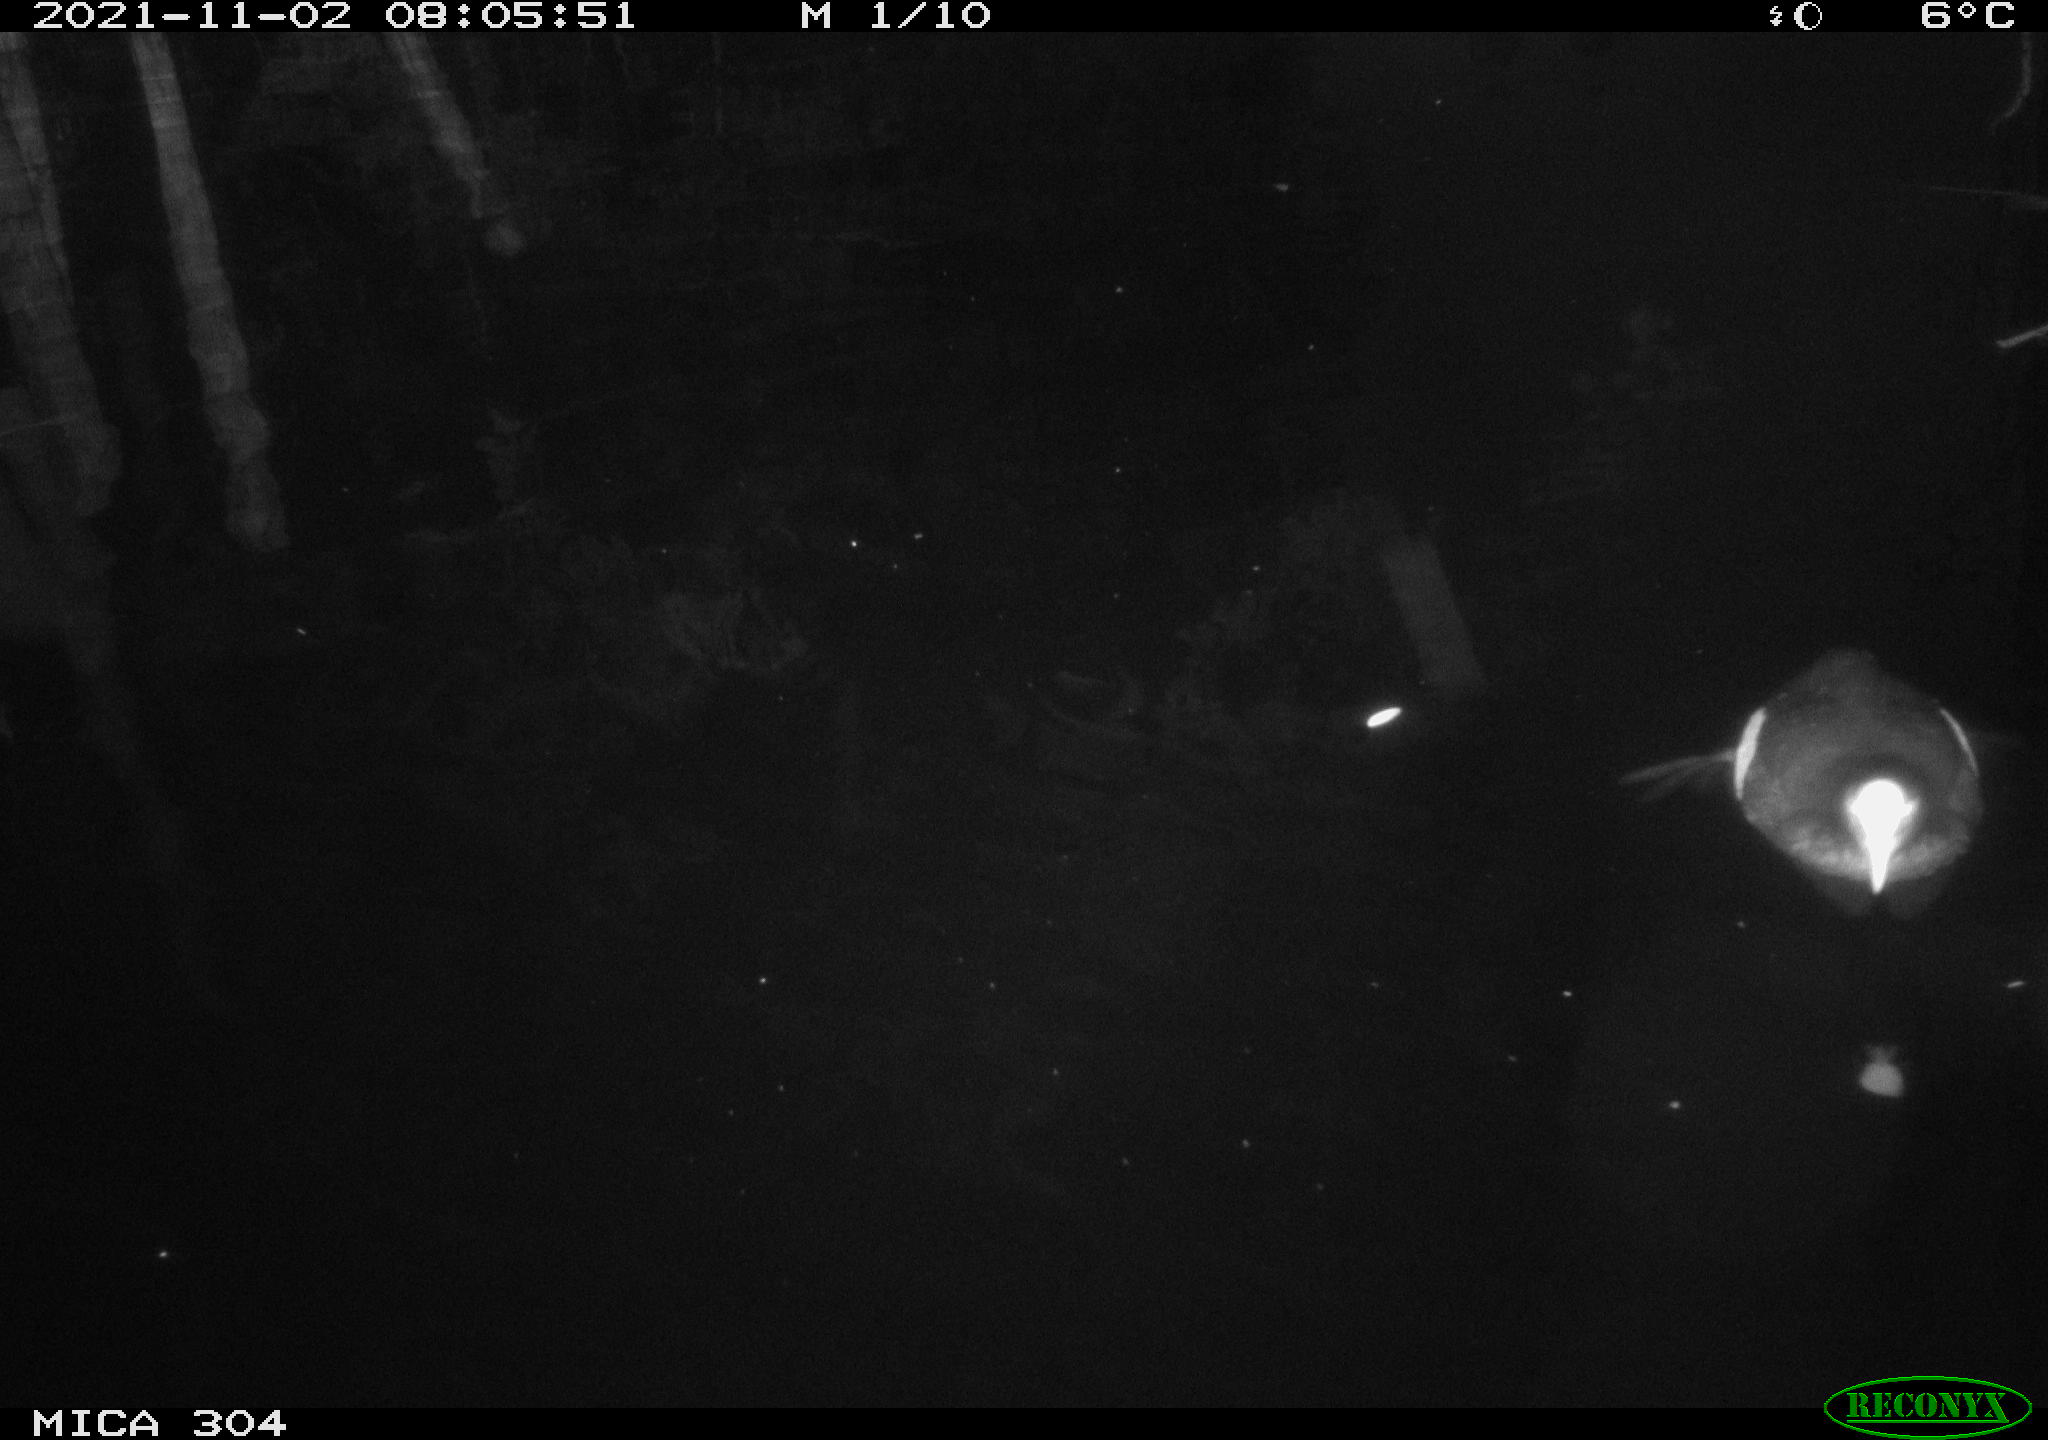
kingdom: Animalia
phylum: Chordata
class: Aves
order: Gruiformes
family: Rallidae
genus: Gallinula
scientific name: Gallinula chloropus
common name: Common moorhen
